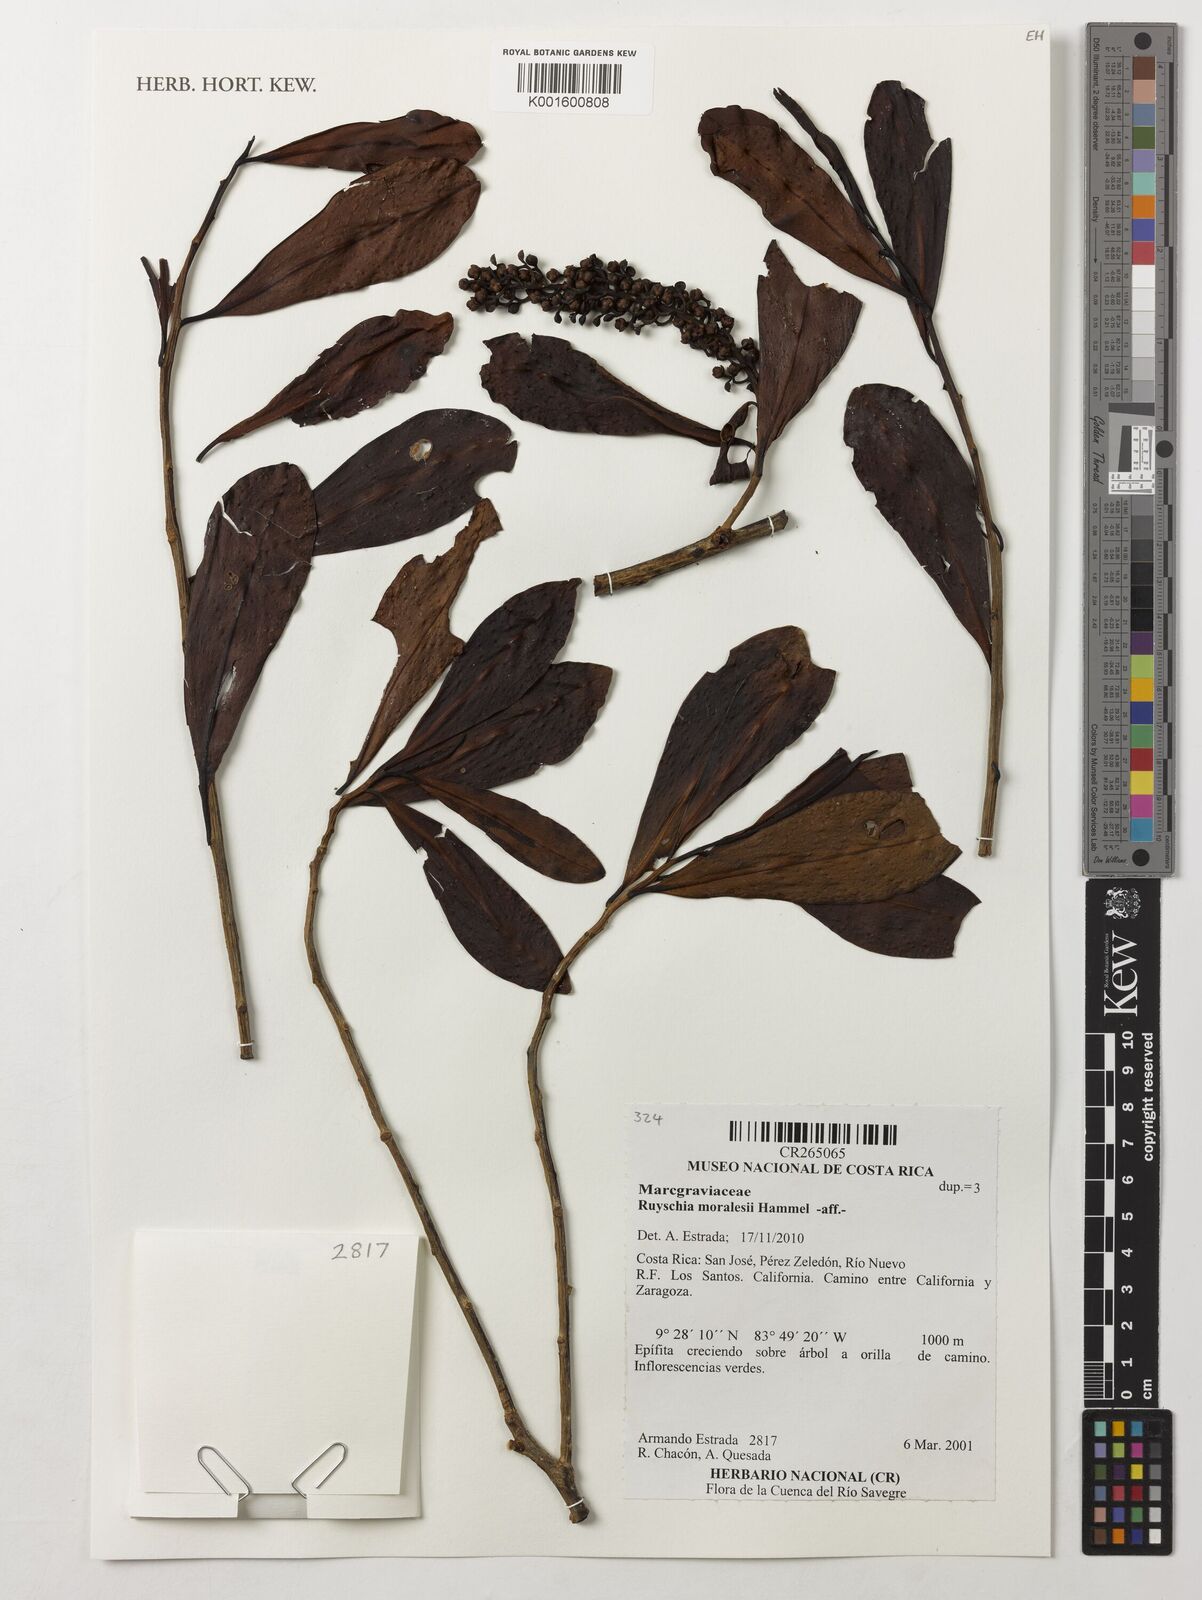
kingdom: Plantae
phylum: Tracheophyta
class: Magnoliopsida
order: Ericales
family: Marcgraviaceae
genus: Ruyschia
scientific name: Ruyschia moralesii
